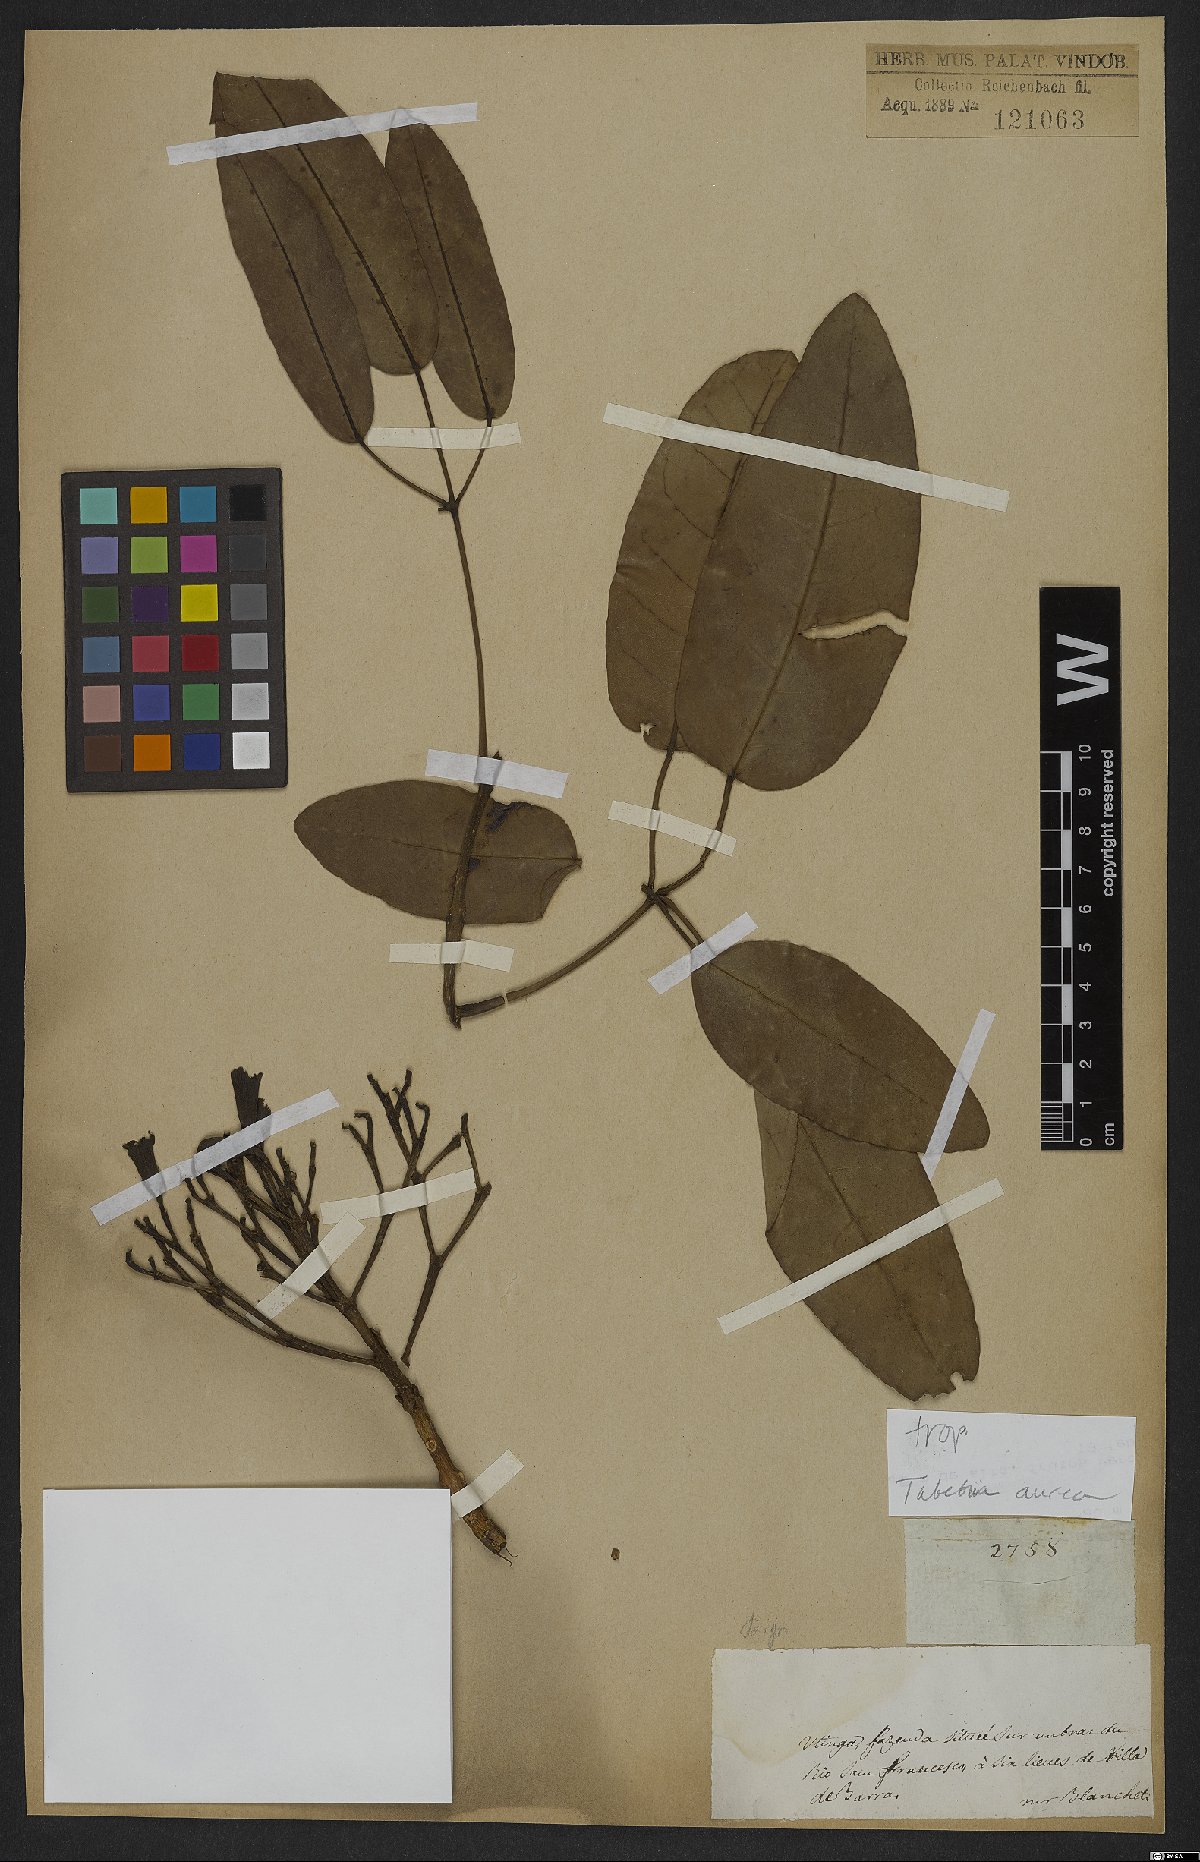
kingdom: Plantae
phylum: Tracheophyta
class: Magnoliopsida
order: Lamiales
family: Bignoniaceae
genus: Tabebuia
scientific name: Tabebuia aurea
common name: Caribbean trumpet-tree
